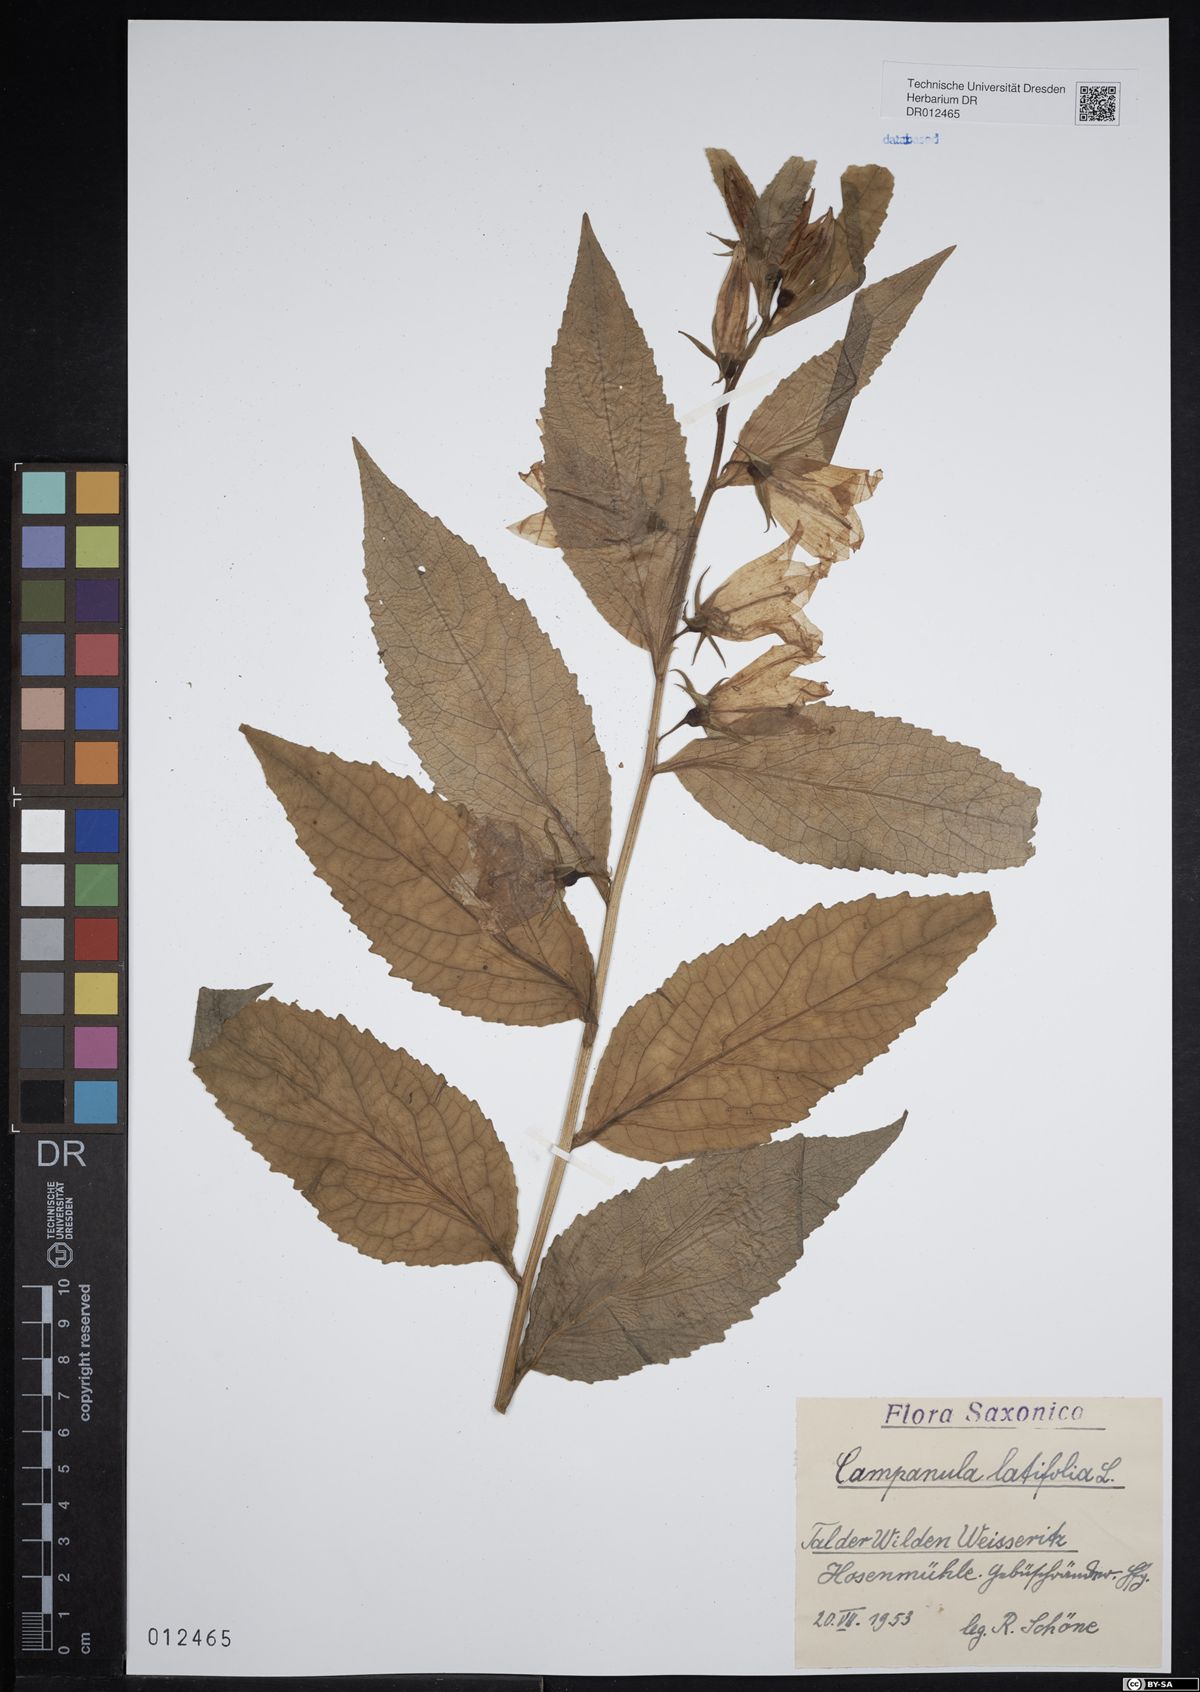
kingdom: Plantae
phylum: Tracheophyta
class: Magnoliopsida
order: Asterales
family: Campanulaceae
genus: Campanula
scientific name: Campanula latifolia
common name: Giant bellflower
